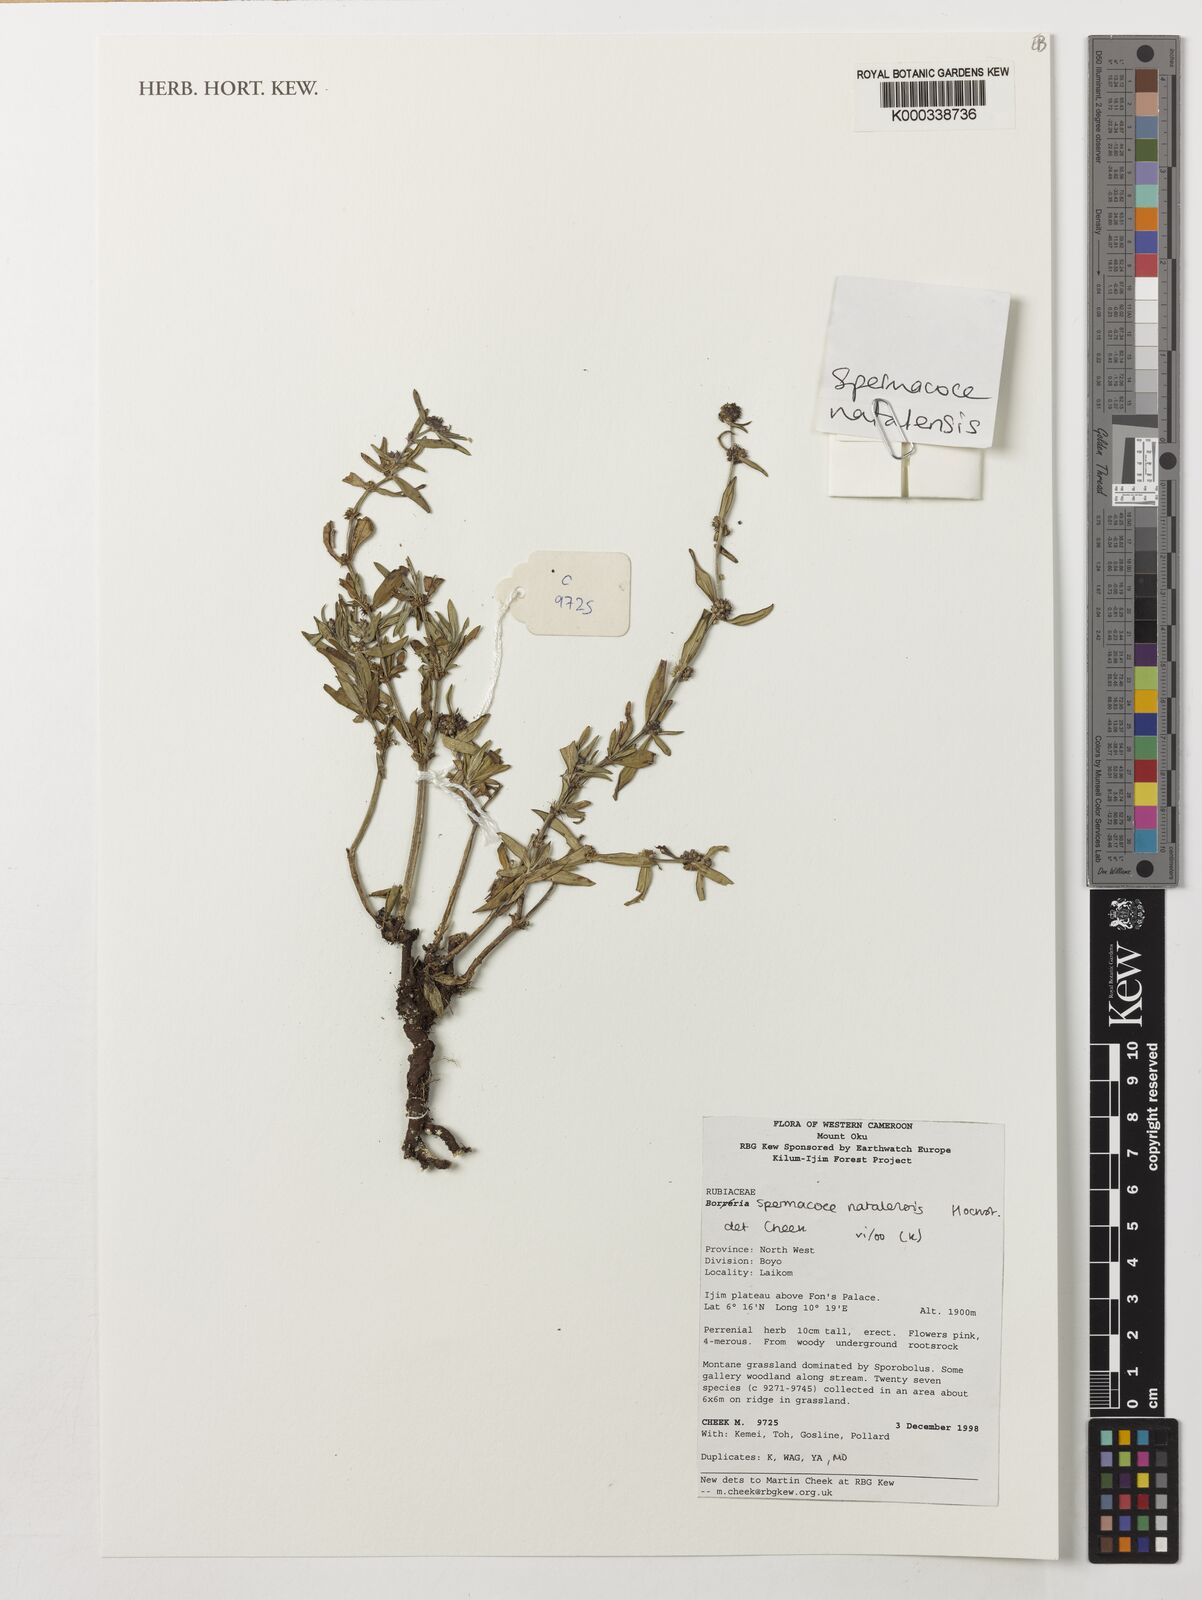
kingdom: Plantae
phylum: Tracheophyta
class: Magnoliopsida
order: Gentianales
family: Rubiaceae
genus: Spermacoce
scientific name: Spermacoce natalensis
